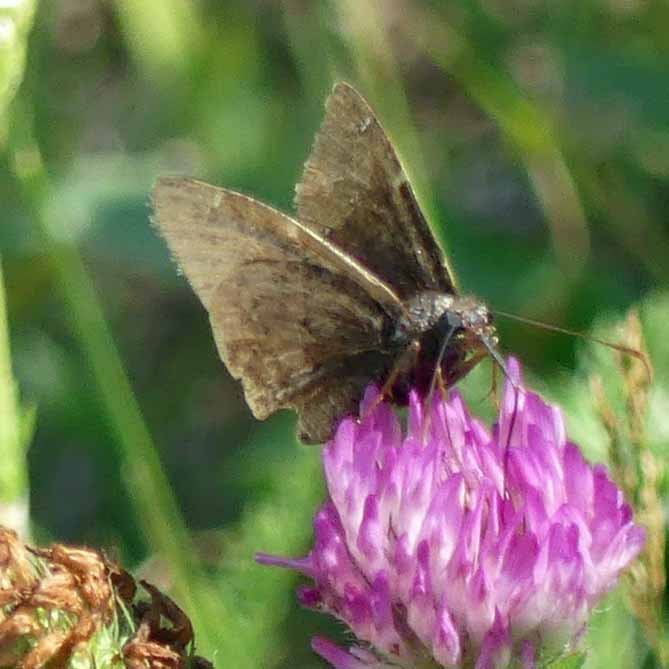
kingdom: Animalia
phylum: Arthropoda
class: Insecta
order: Lepidoptera
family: Hesperiidae
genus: Autochton
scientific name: Autochton
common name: Northern Cloudywing
